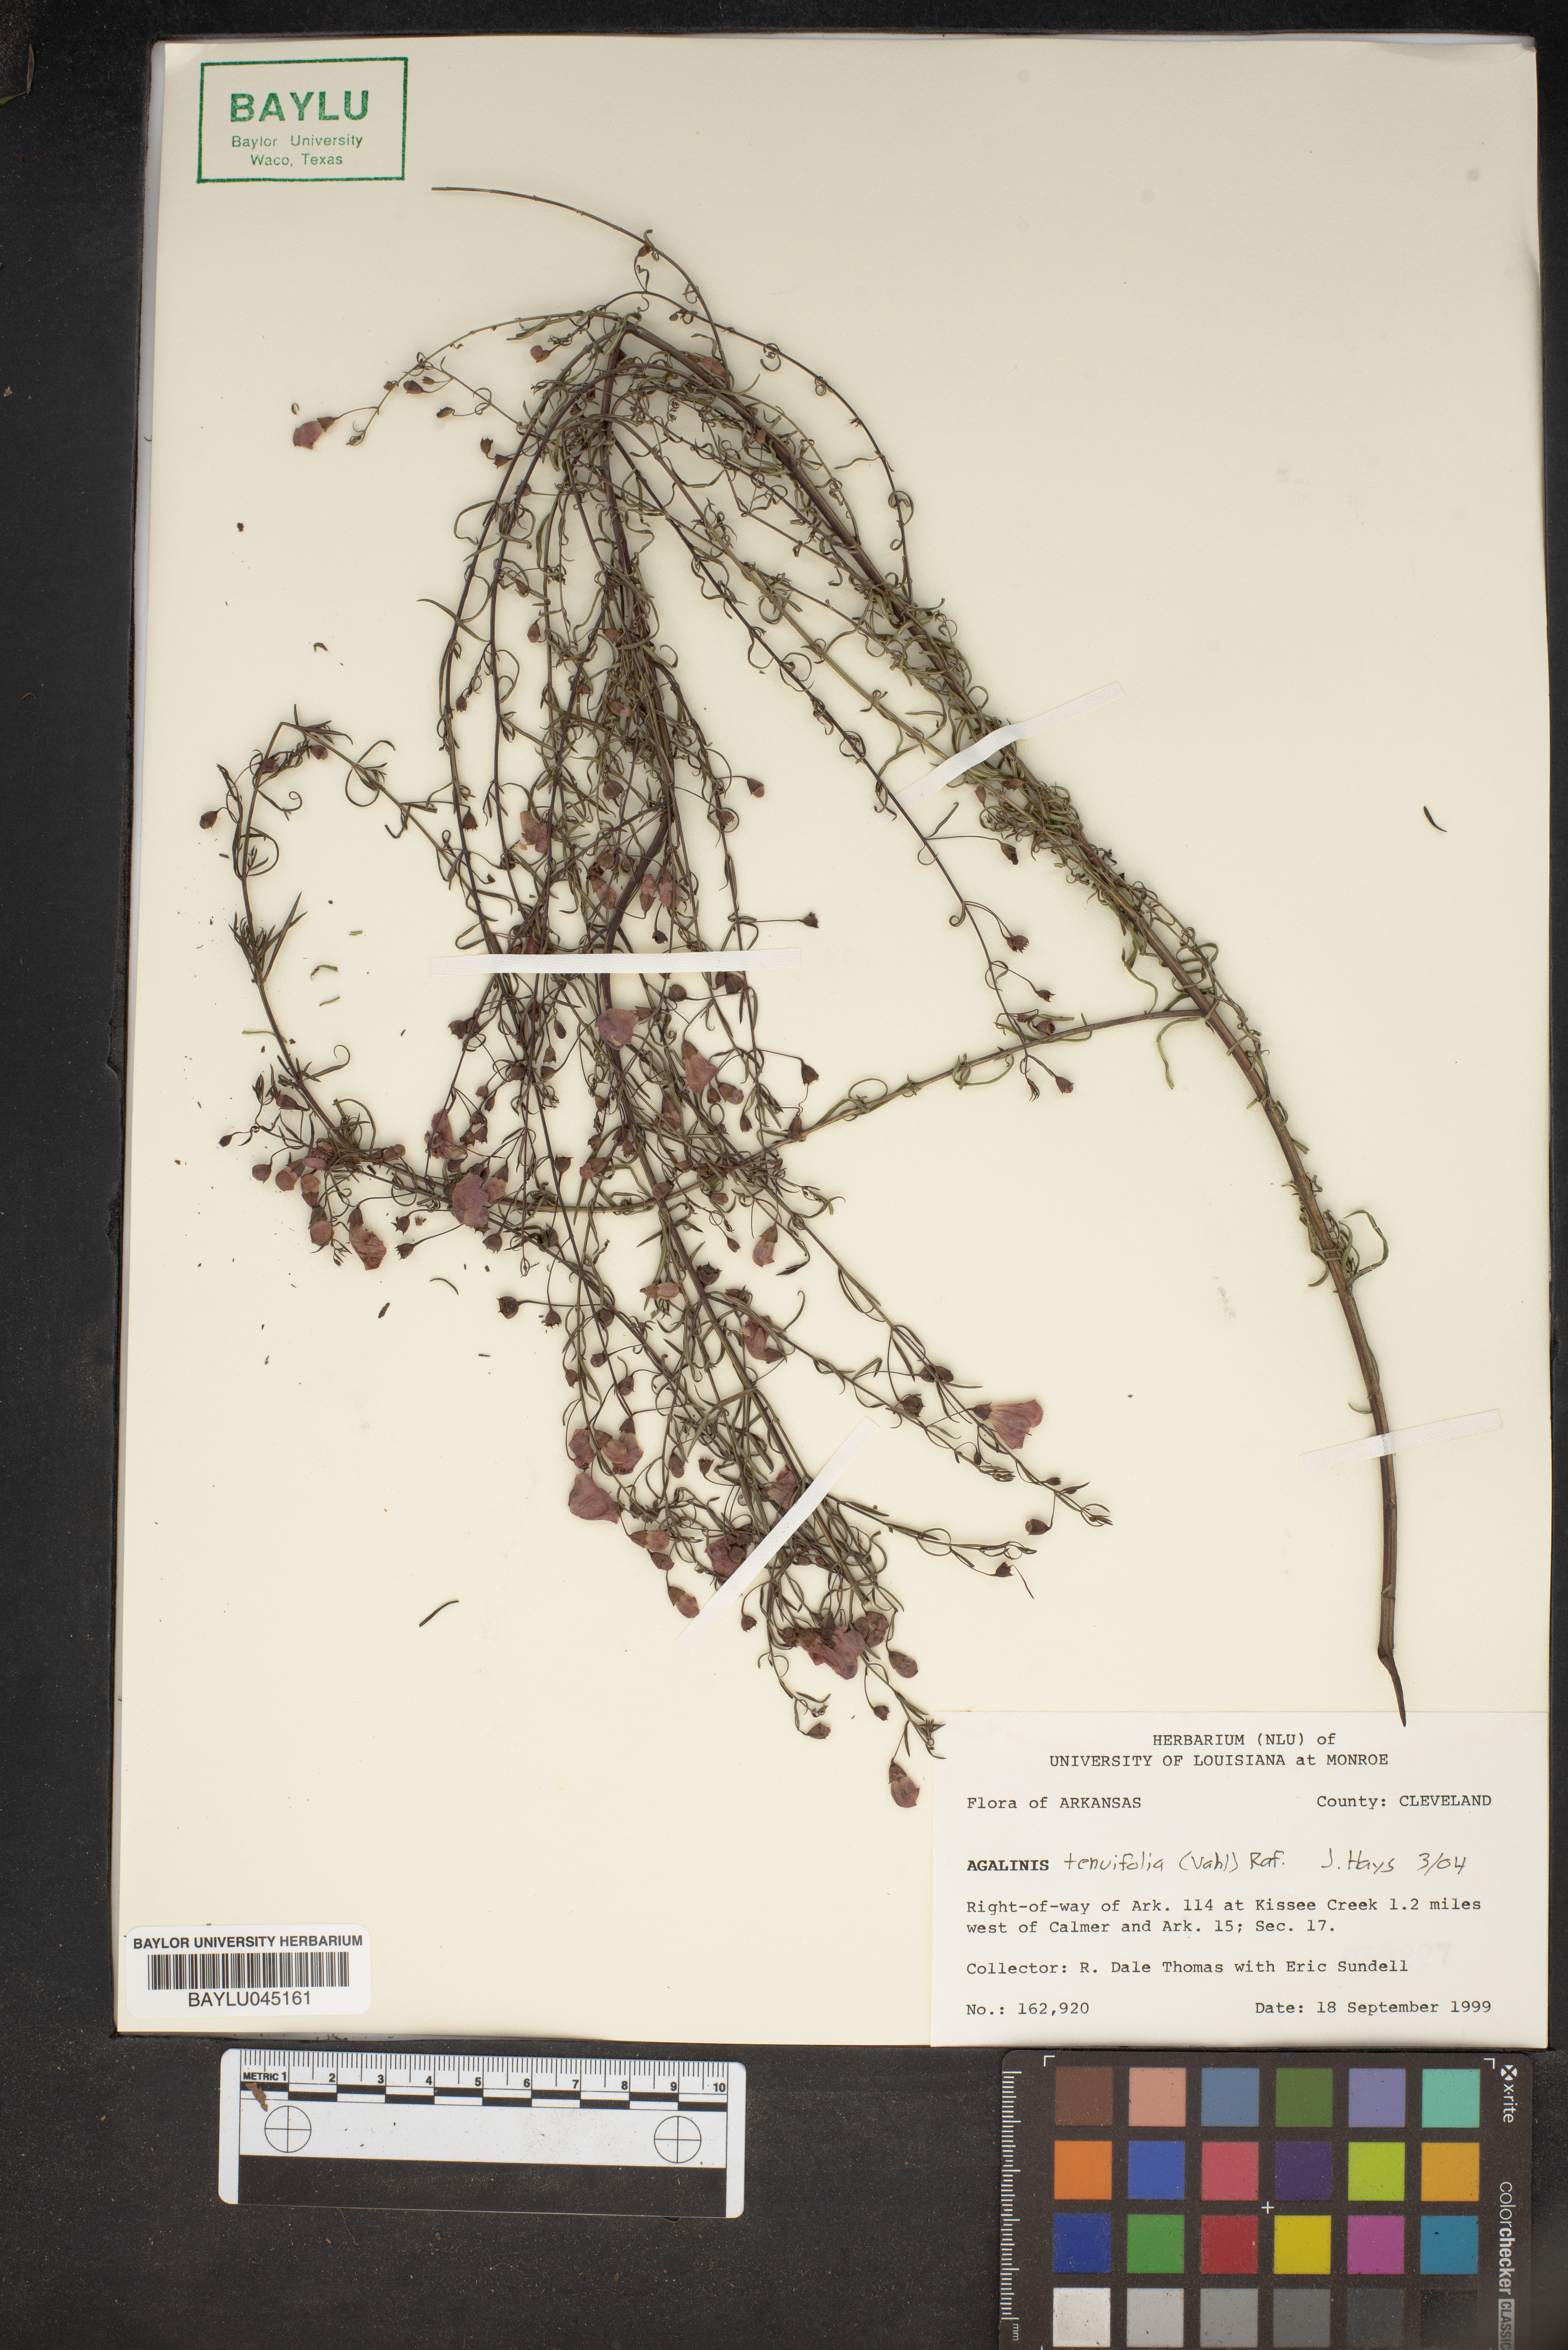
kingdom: Plantae
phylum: Tracheophyta
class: Magnoliopsida
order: Lamiales
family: Orobanchaceae
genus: Agalinis
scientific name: Agalinis tenuifolia
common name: Slender agalinis
